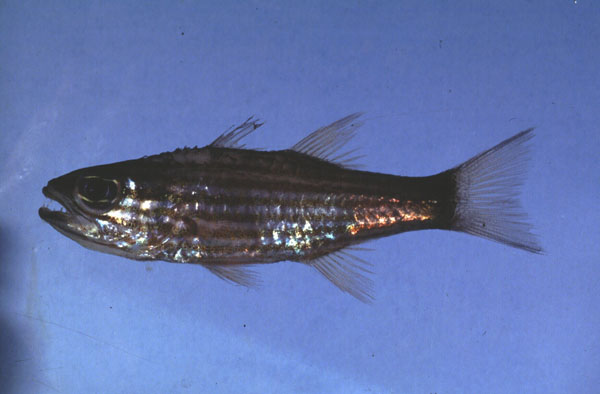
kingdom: Animalia
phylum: Chordata
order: Perciformes
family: Apogonidae
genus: Cheilodipterus
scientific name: Cheilodipterus macrodon
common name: Eight-lined cardinalfish
